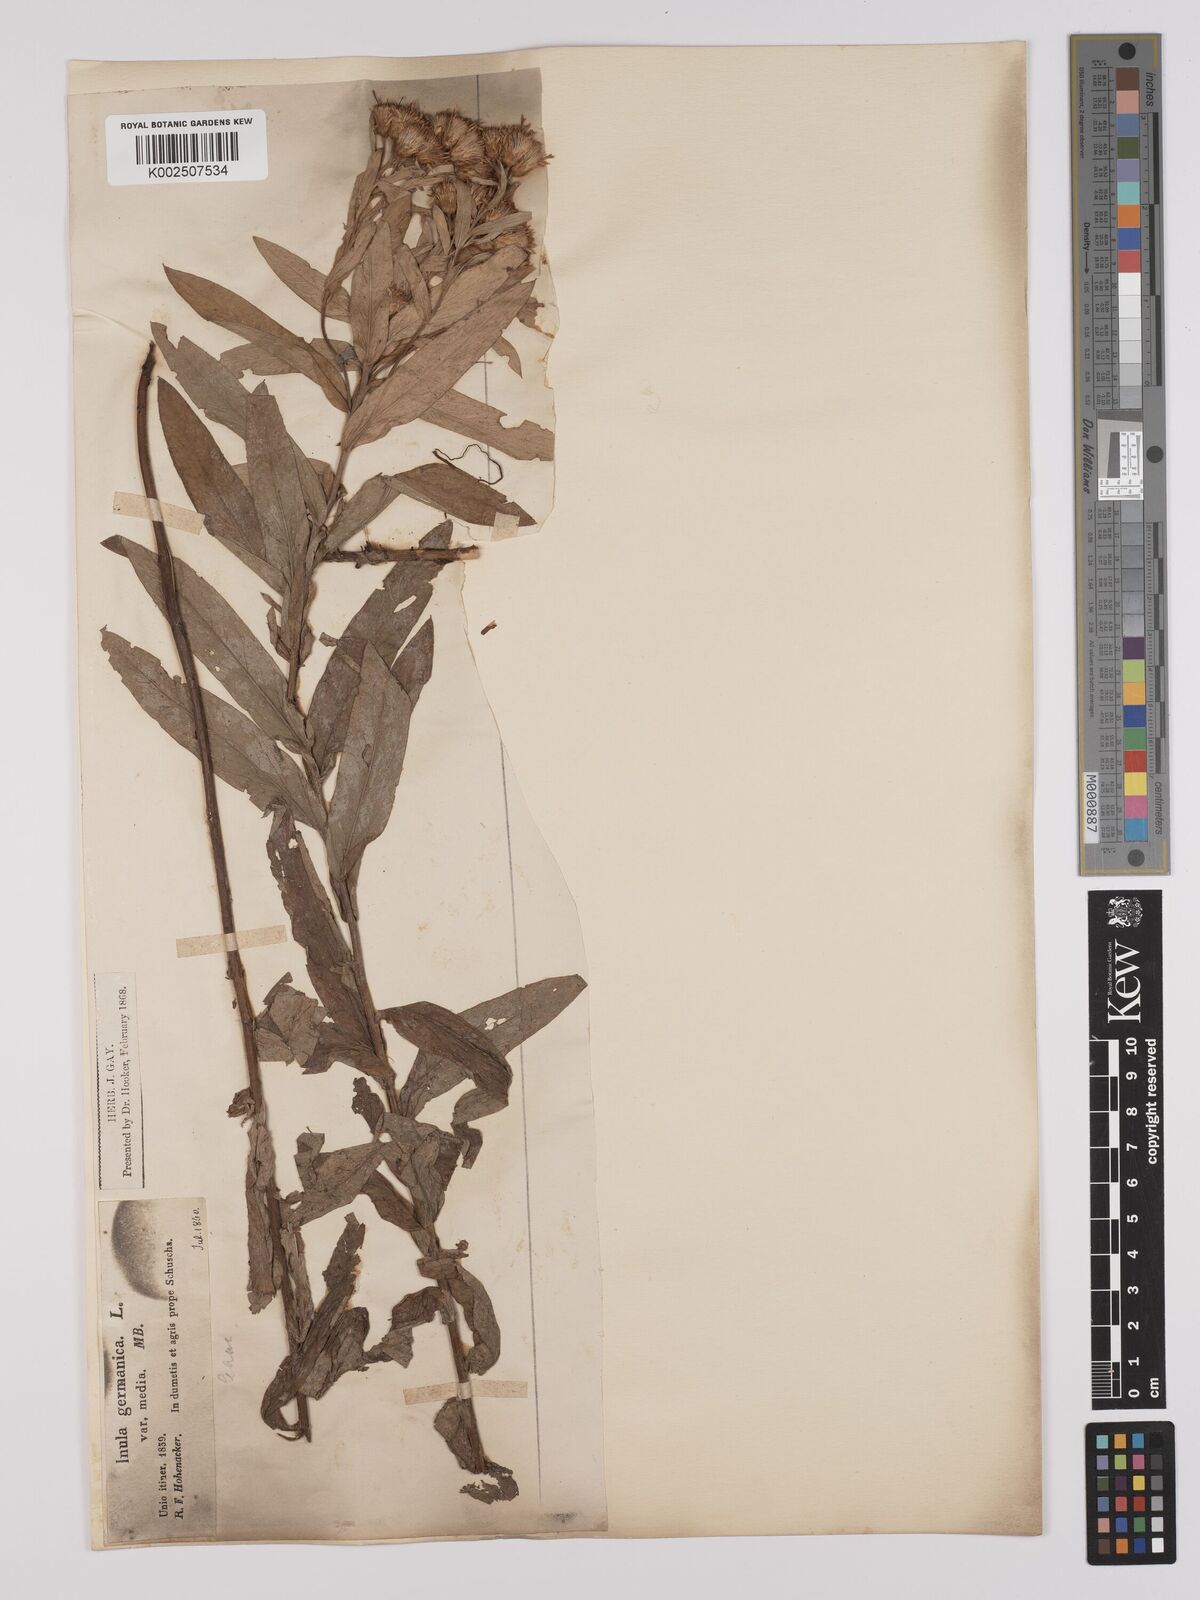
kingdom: Plantae
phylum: Tracheophyta
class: Magnoliopsida
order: Asterales
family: Asteraceae
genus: Pentanema
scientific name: Pentanema germanicum
